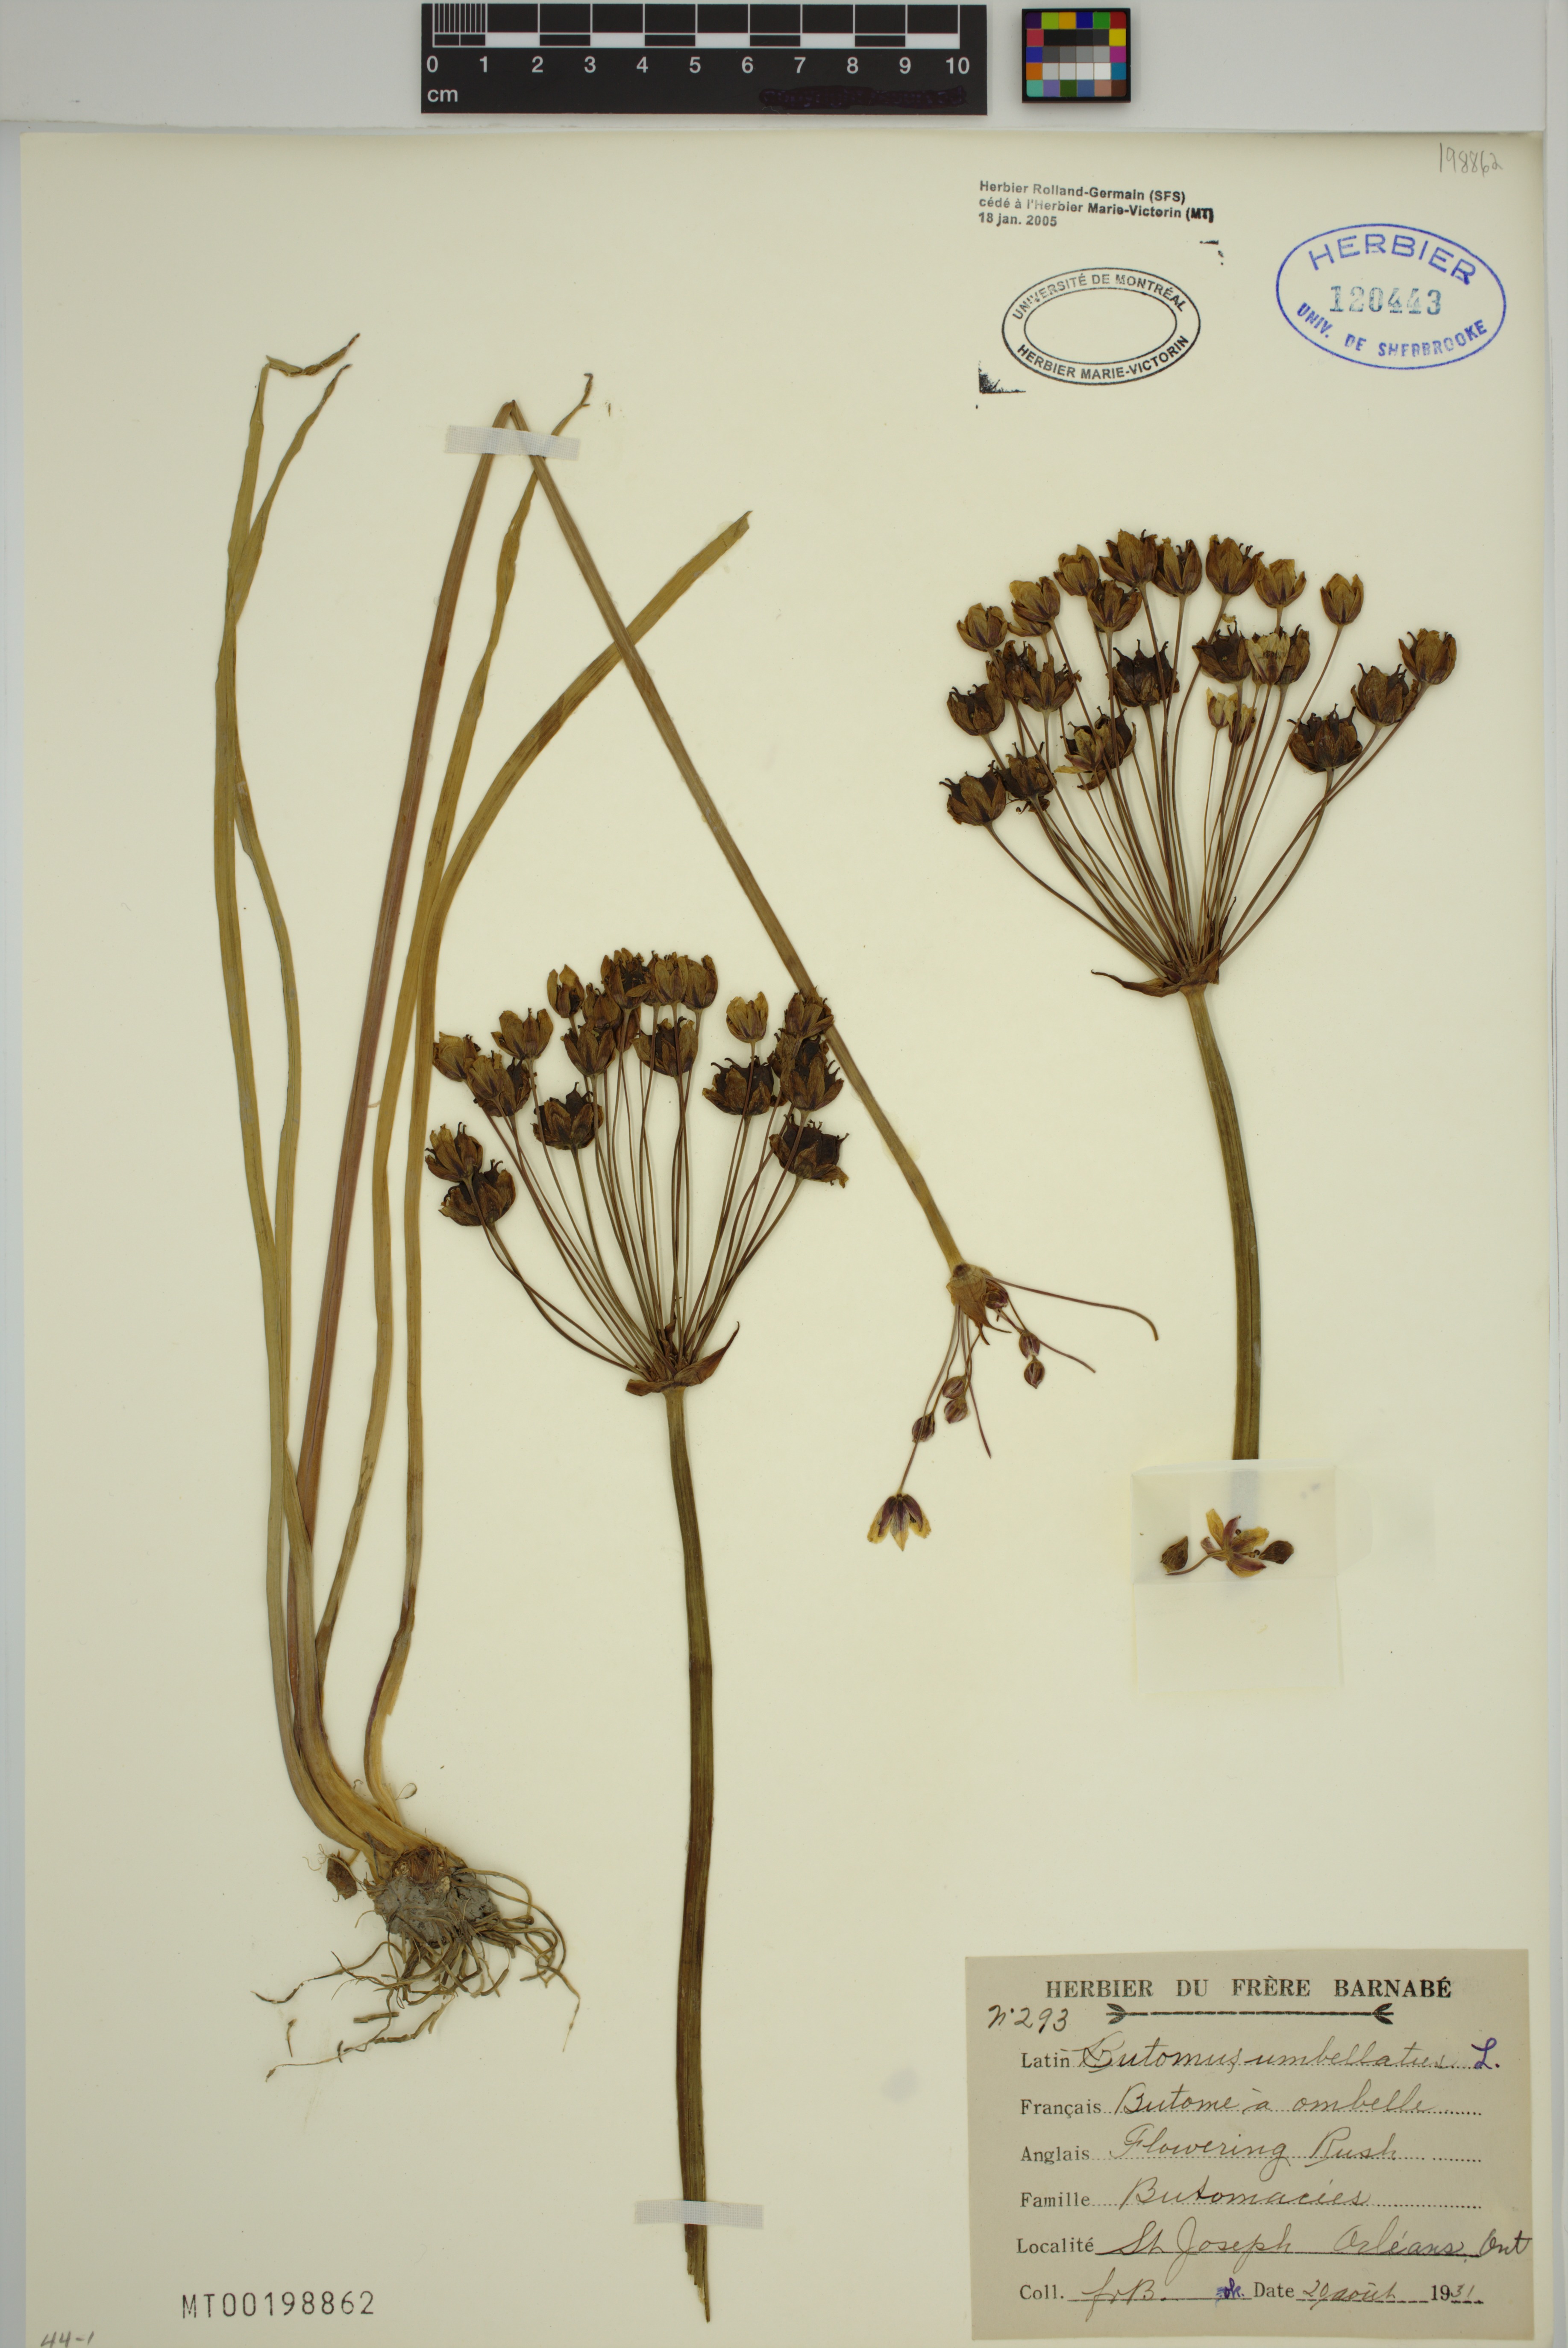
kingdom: Plantae
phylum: Tracheophyta
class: Liliopsida
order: Alismatales
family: Butomaceae
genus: Butomus
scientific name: Butomus umbellatus
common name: Flowering-rush
